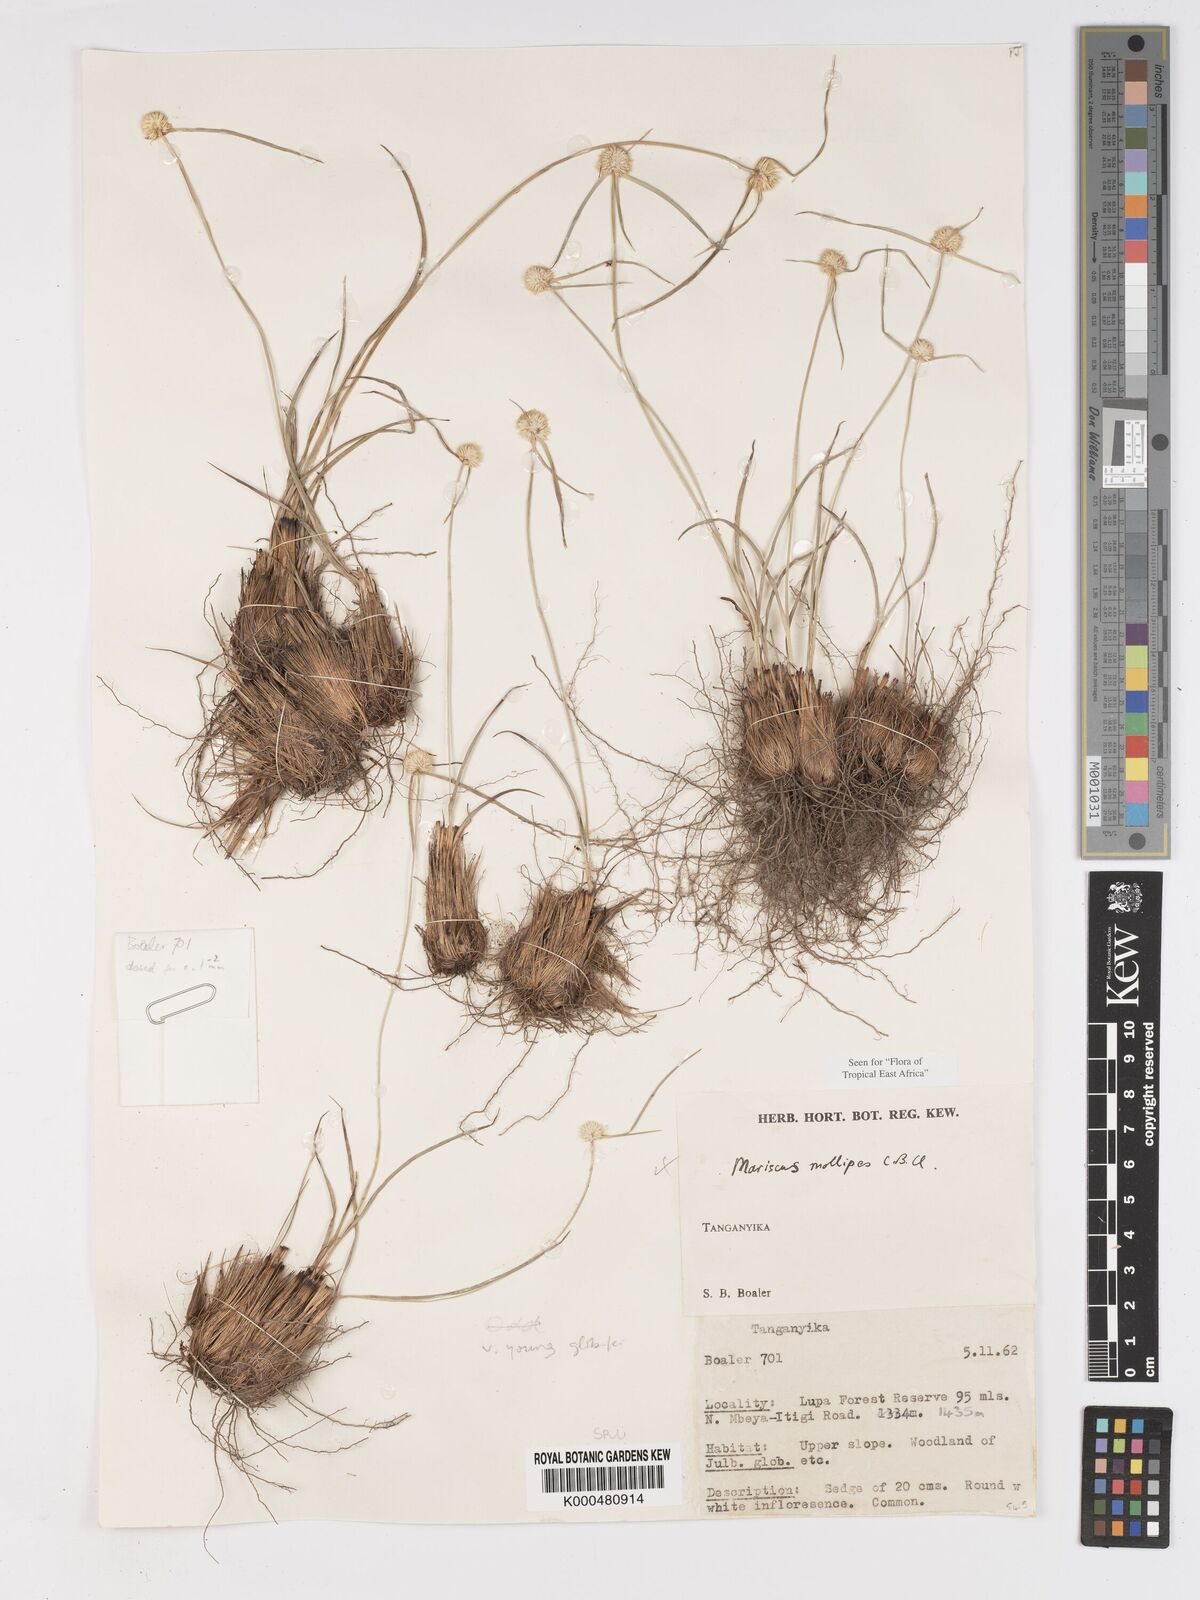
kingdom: Plantae
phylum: Tracheophyta
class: Liliopsida
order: Poales
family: Cyperaceae
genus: Cyperus
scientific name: Cyperus mollipes
